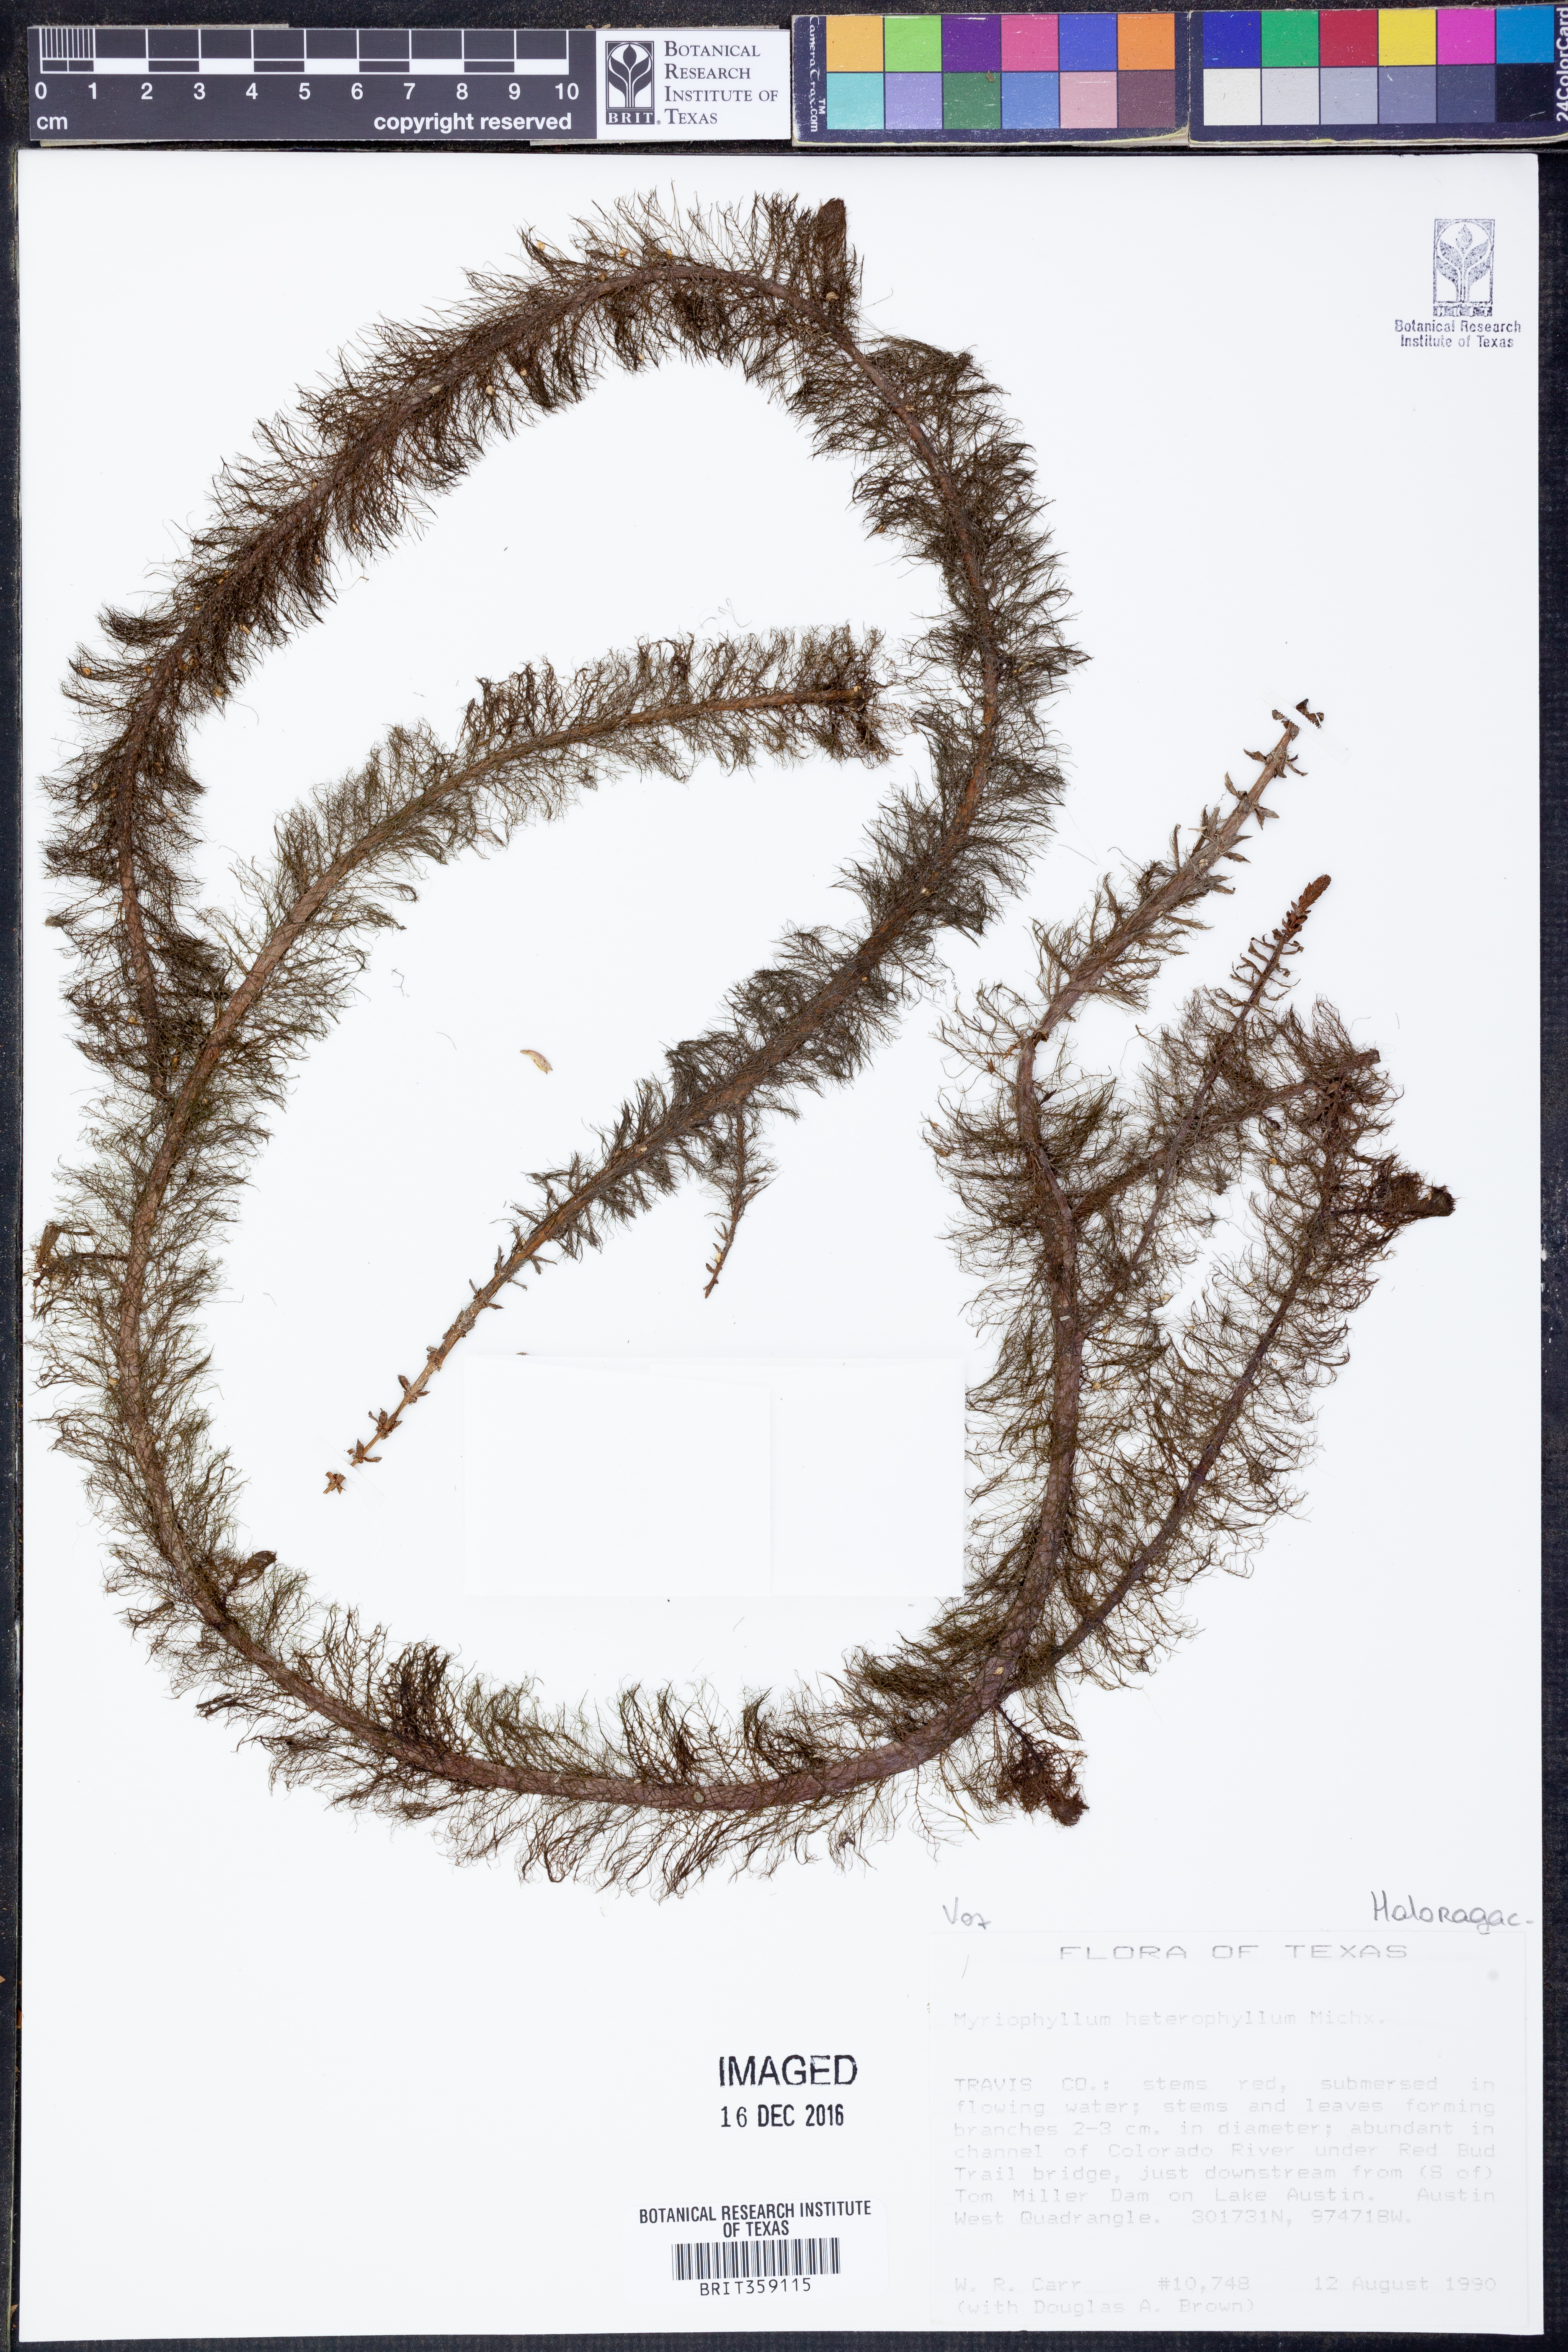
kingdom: Plantae
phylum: Tracheophyta
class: Magnoliopsida
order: Saxifragales
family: Haloragaceae
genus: Myriophyllum
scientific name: Myriophyllum heterophyllum
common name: Variable watermilfoil
